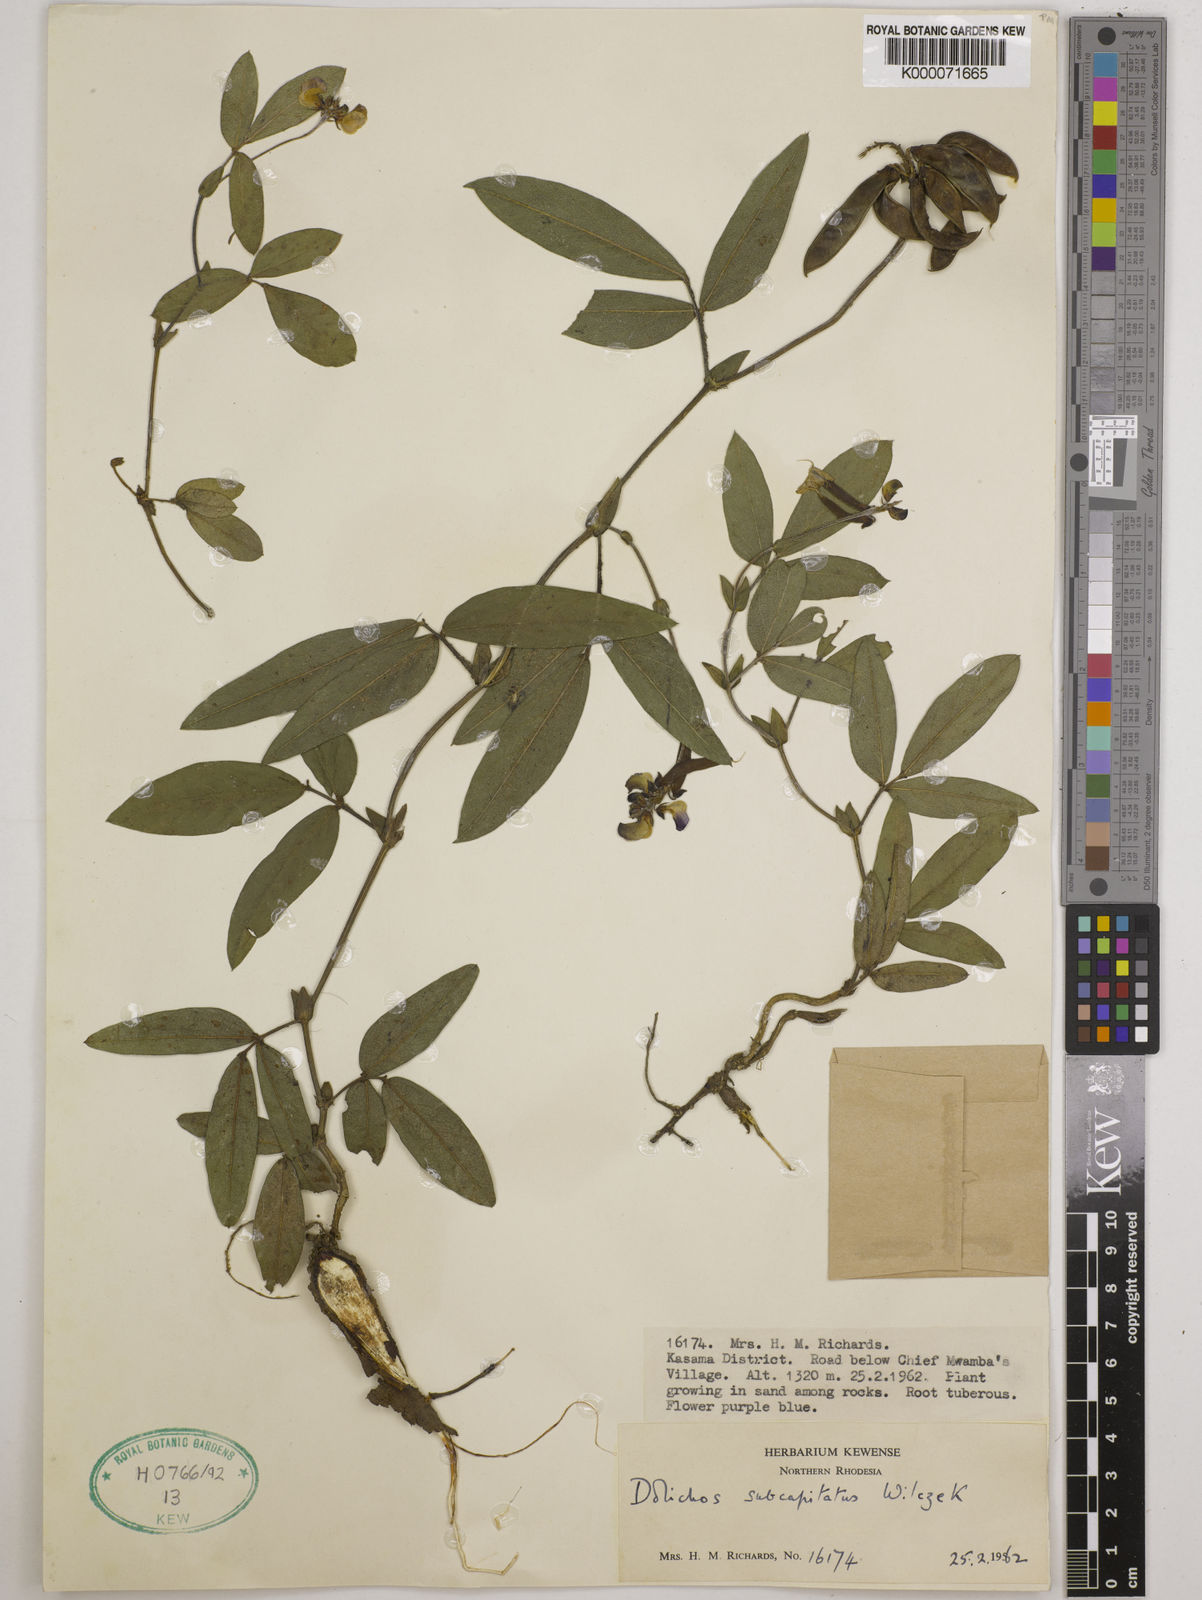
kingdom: Plantae
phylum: Tracheophyta
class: Magnoliopsida
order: Fabales
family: Fabaceae
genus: Dolichos
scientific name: Dolichos subcapitatus
